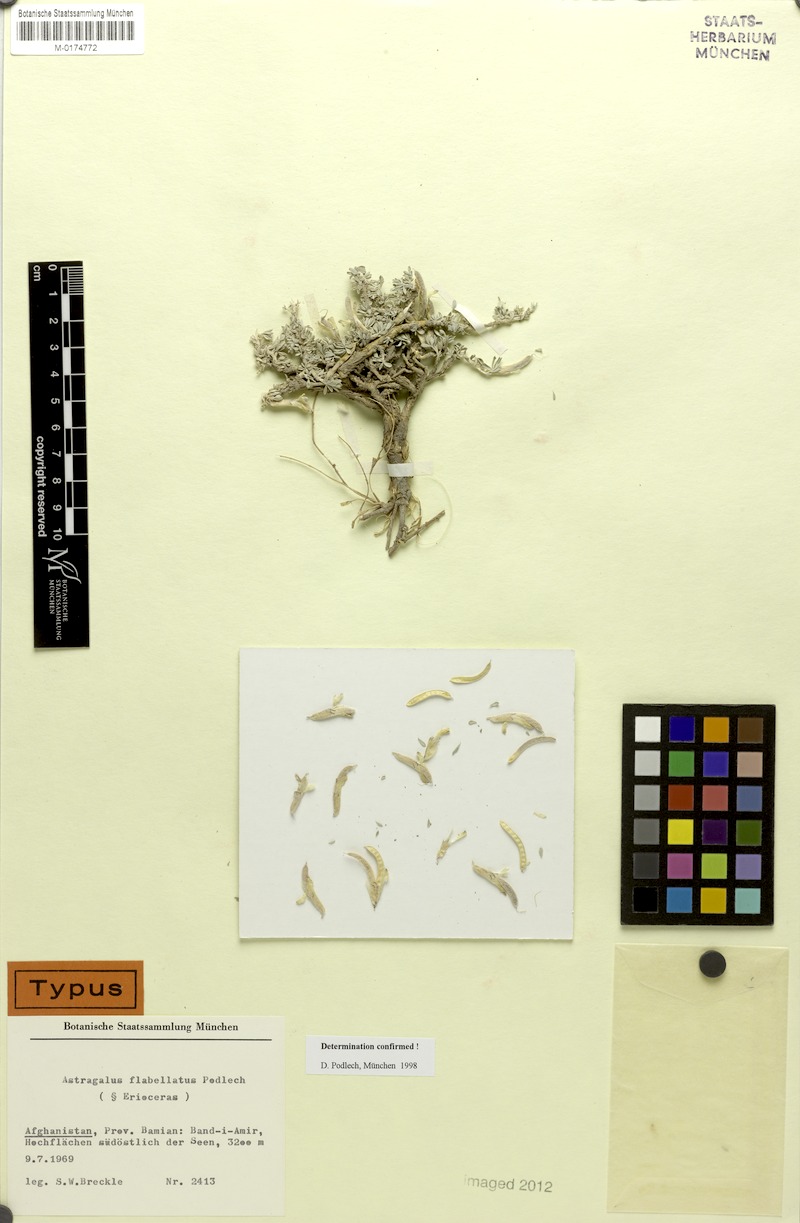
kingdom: Plantae
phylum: Tracheophyta
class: Magnoliopsida
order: Fabales
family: Fabaceae
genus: Astragalus
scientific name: Astragalus flabellatus
